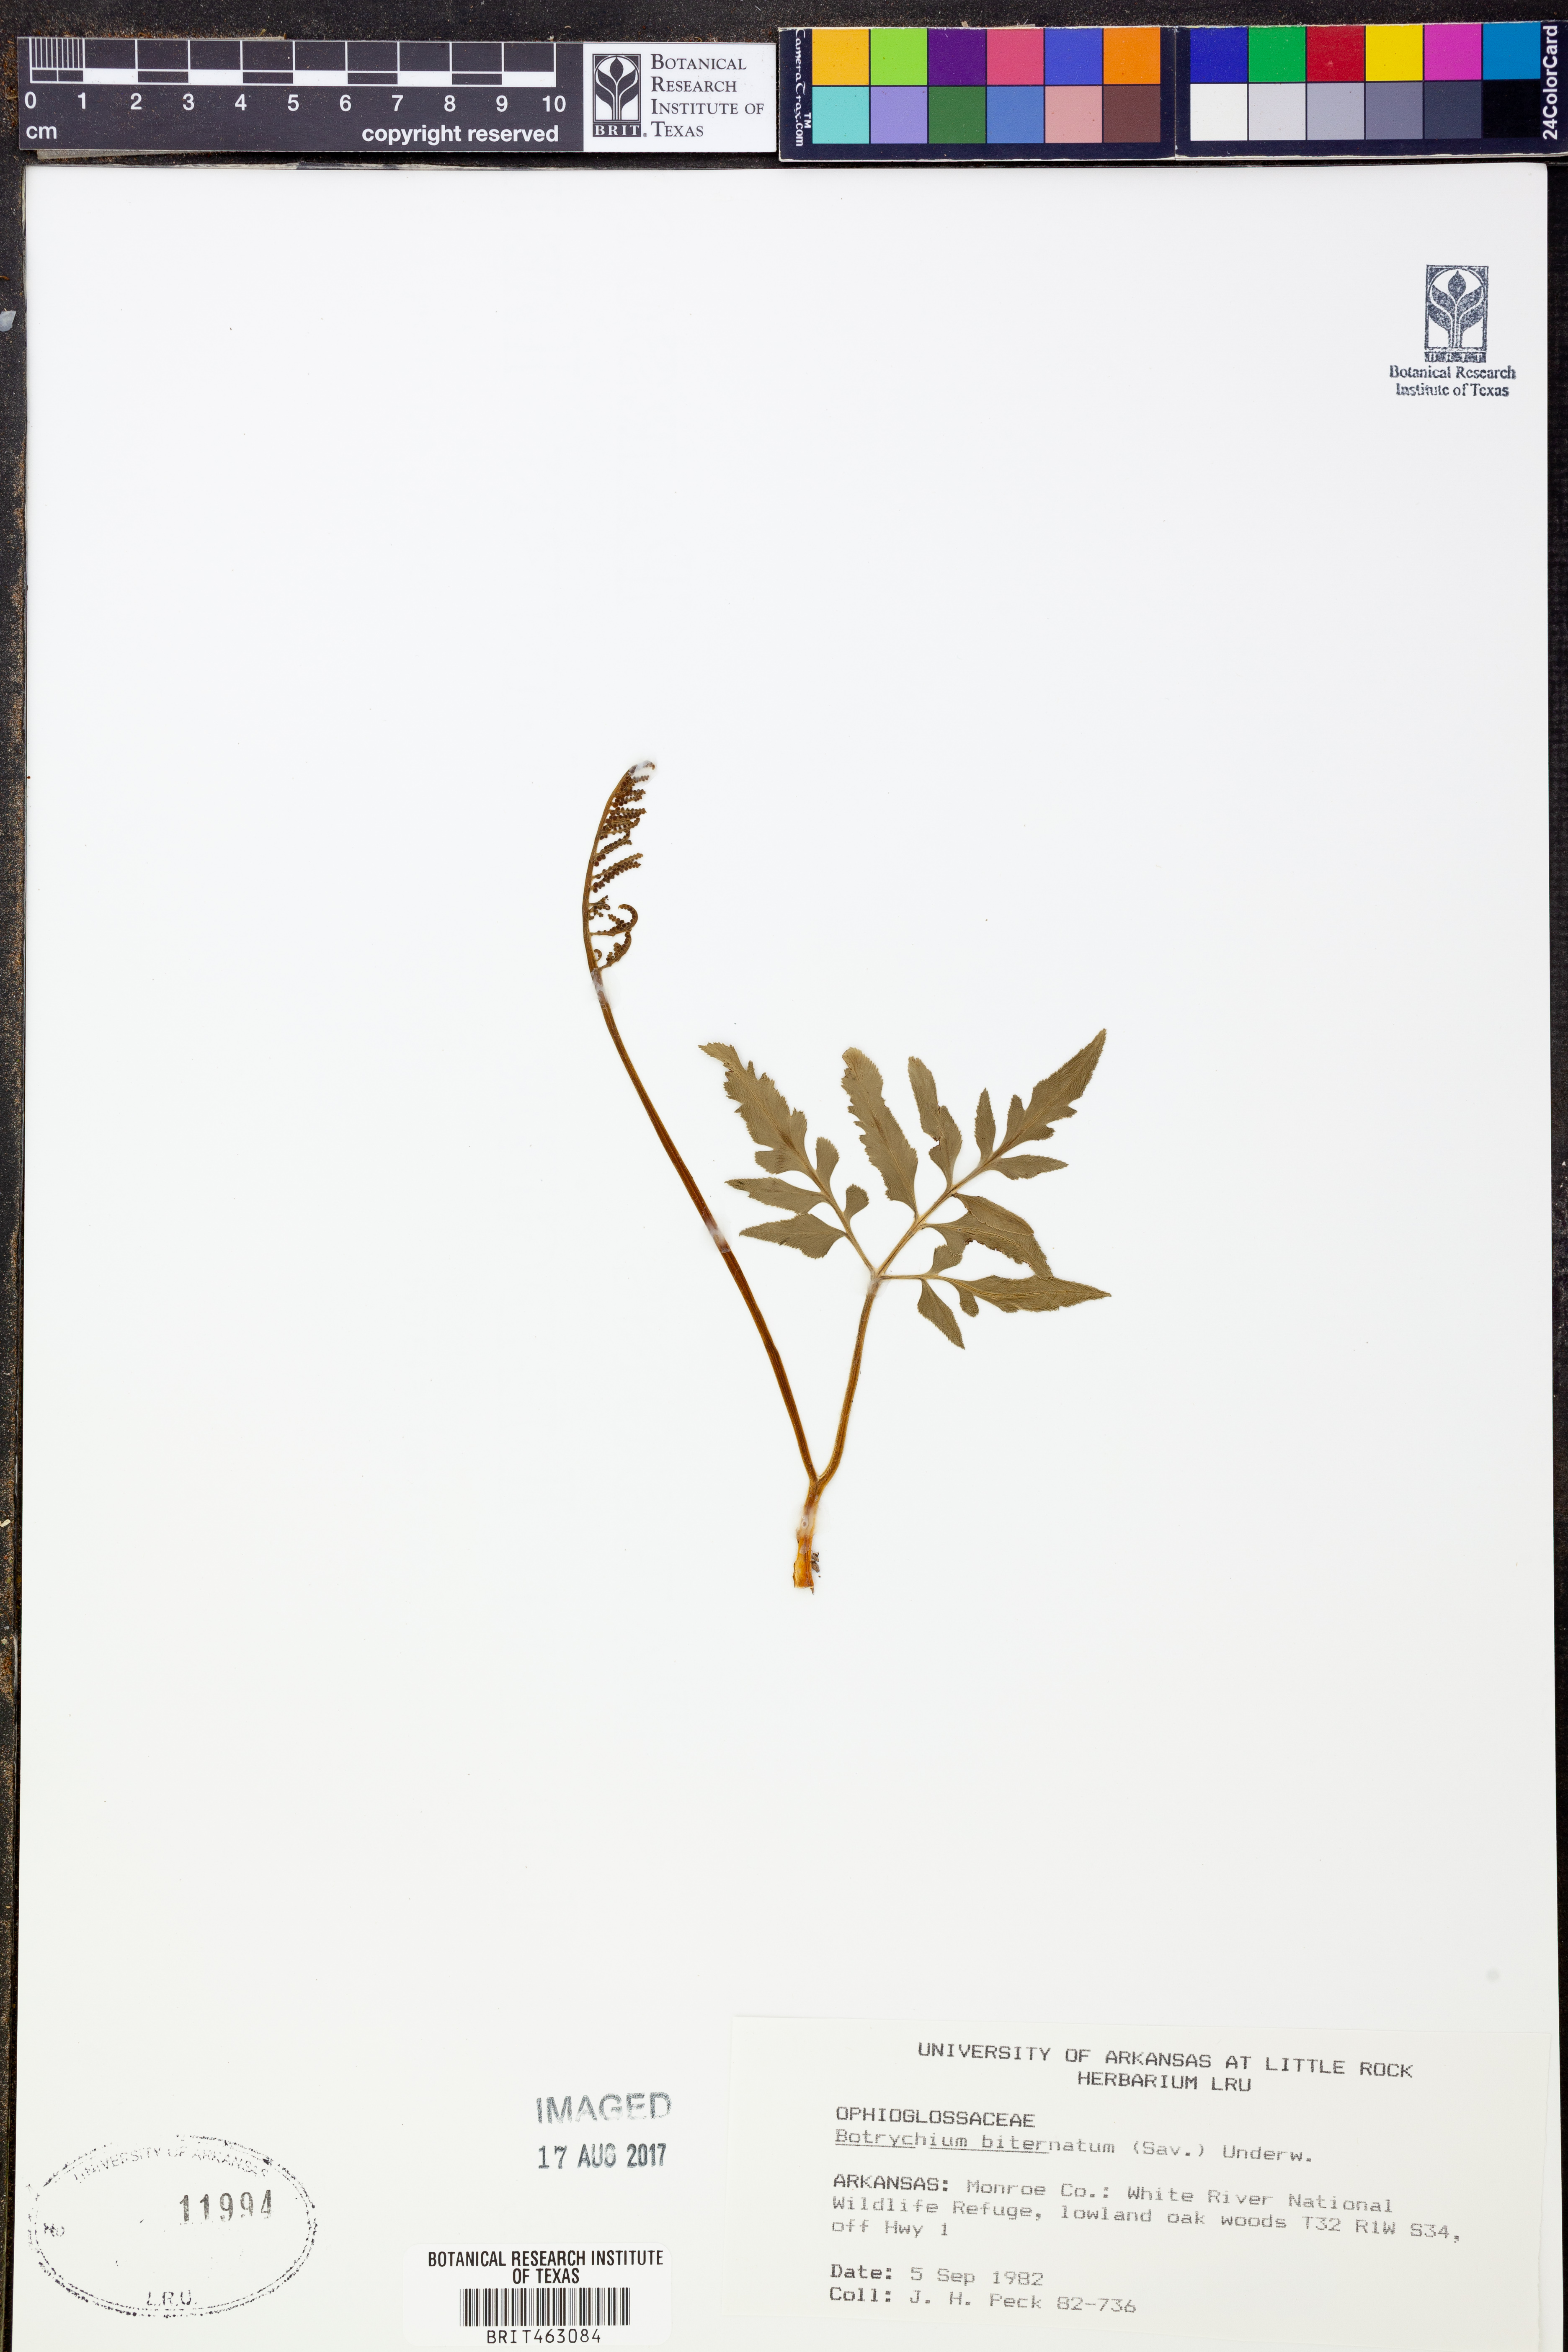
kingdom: Plantae
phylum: Tracheophyta
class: Polypodiopsida
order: Ophioglossales
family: Ophioglossaceae
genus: Sceptridium
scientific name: Sceptridium biternatum
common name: Sparse-lobed grapefern
